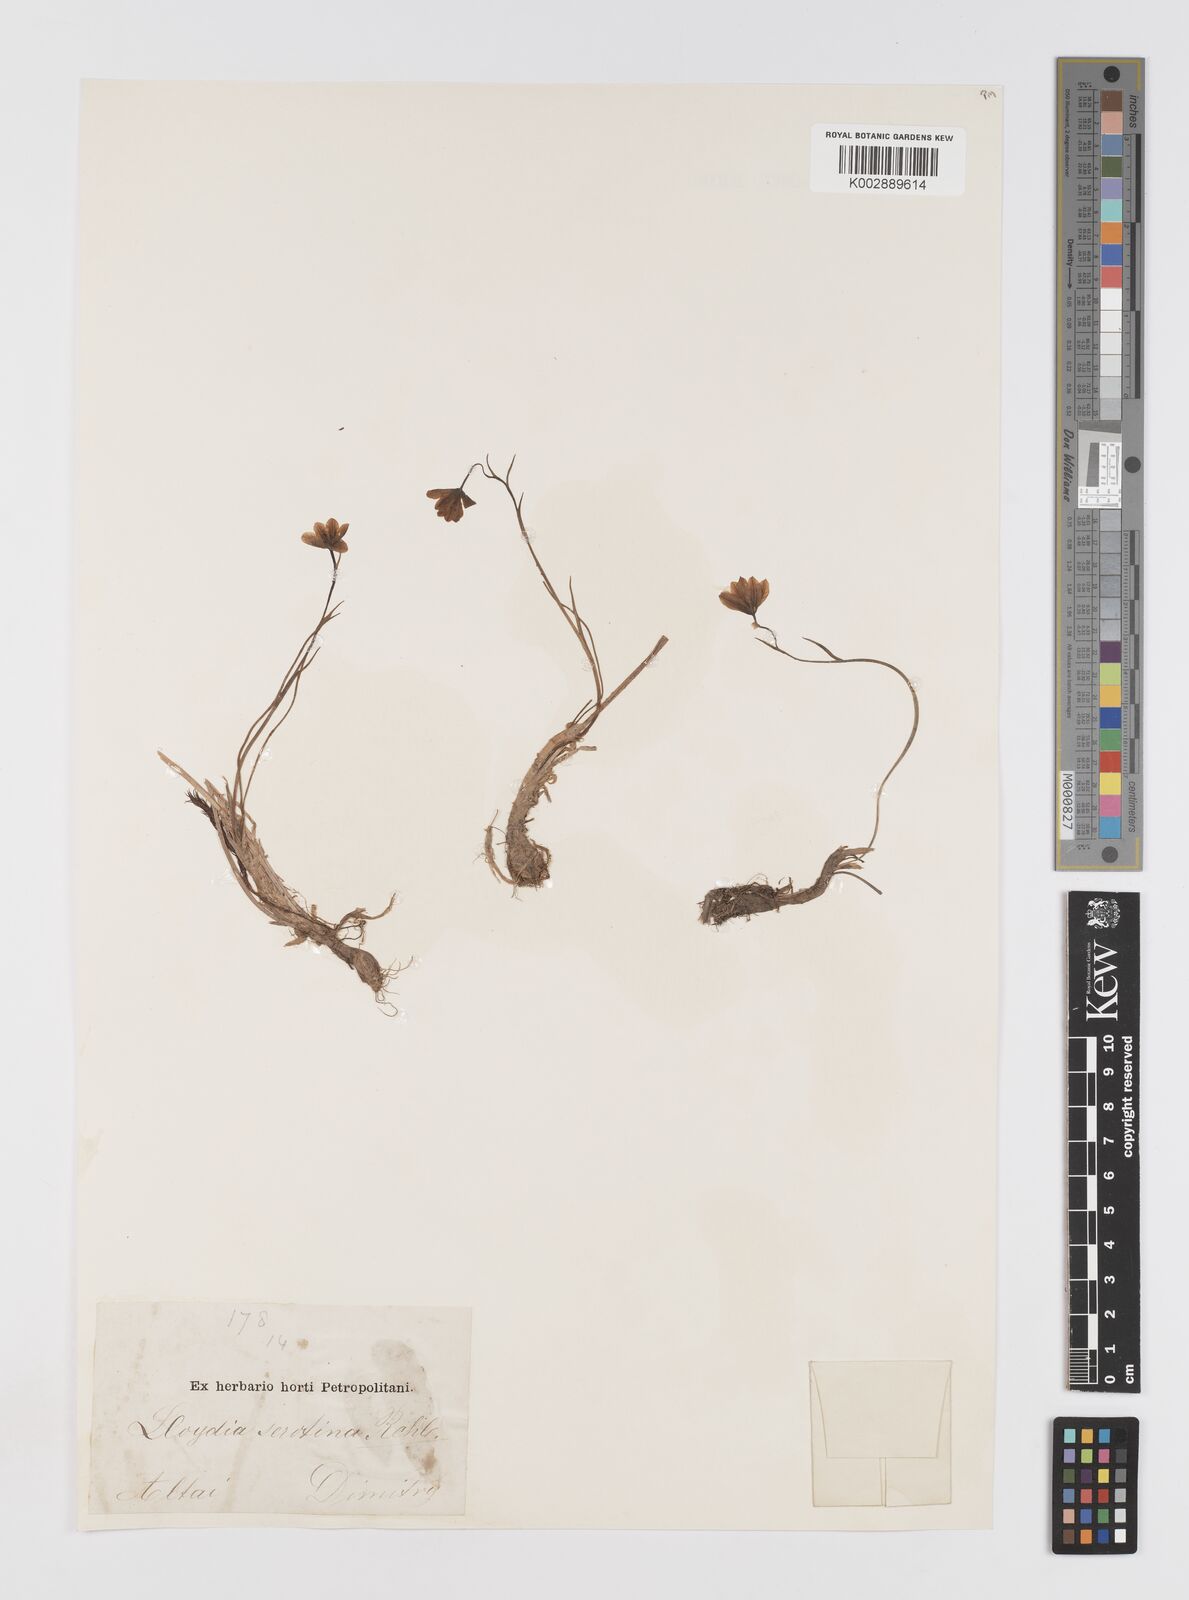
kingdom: Plantae
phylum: Tracheophyta
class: Liliopsida
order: Liliales
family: Liliaceae
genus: Gagea
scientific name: Gagea serotina
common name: Snowdon lily
